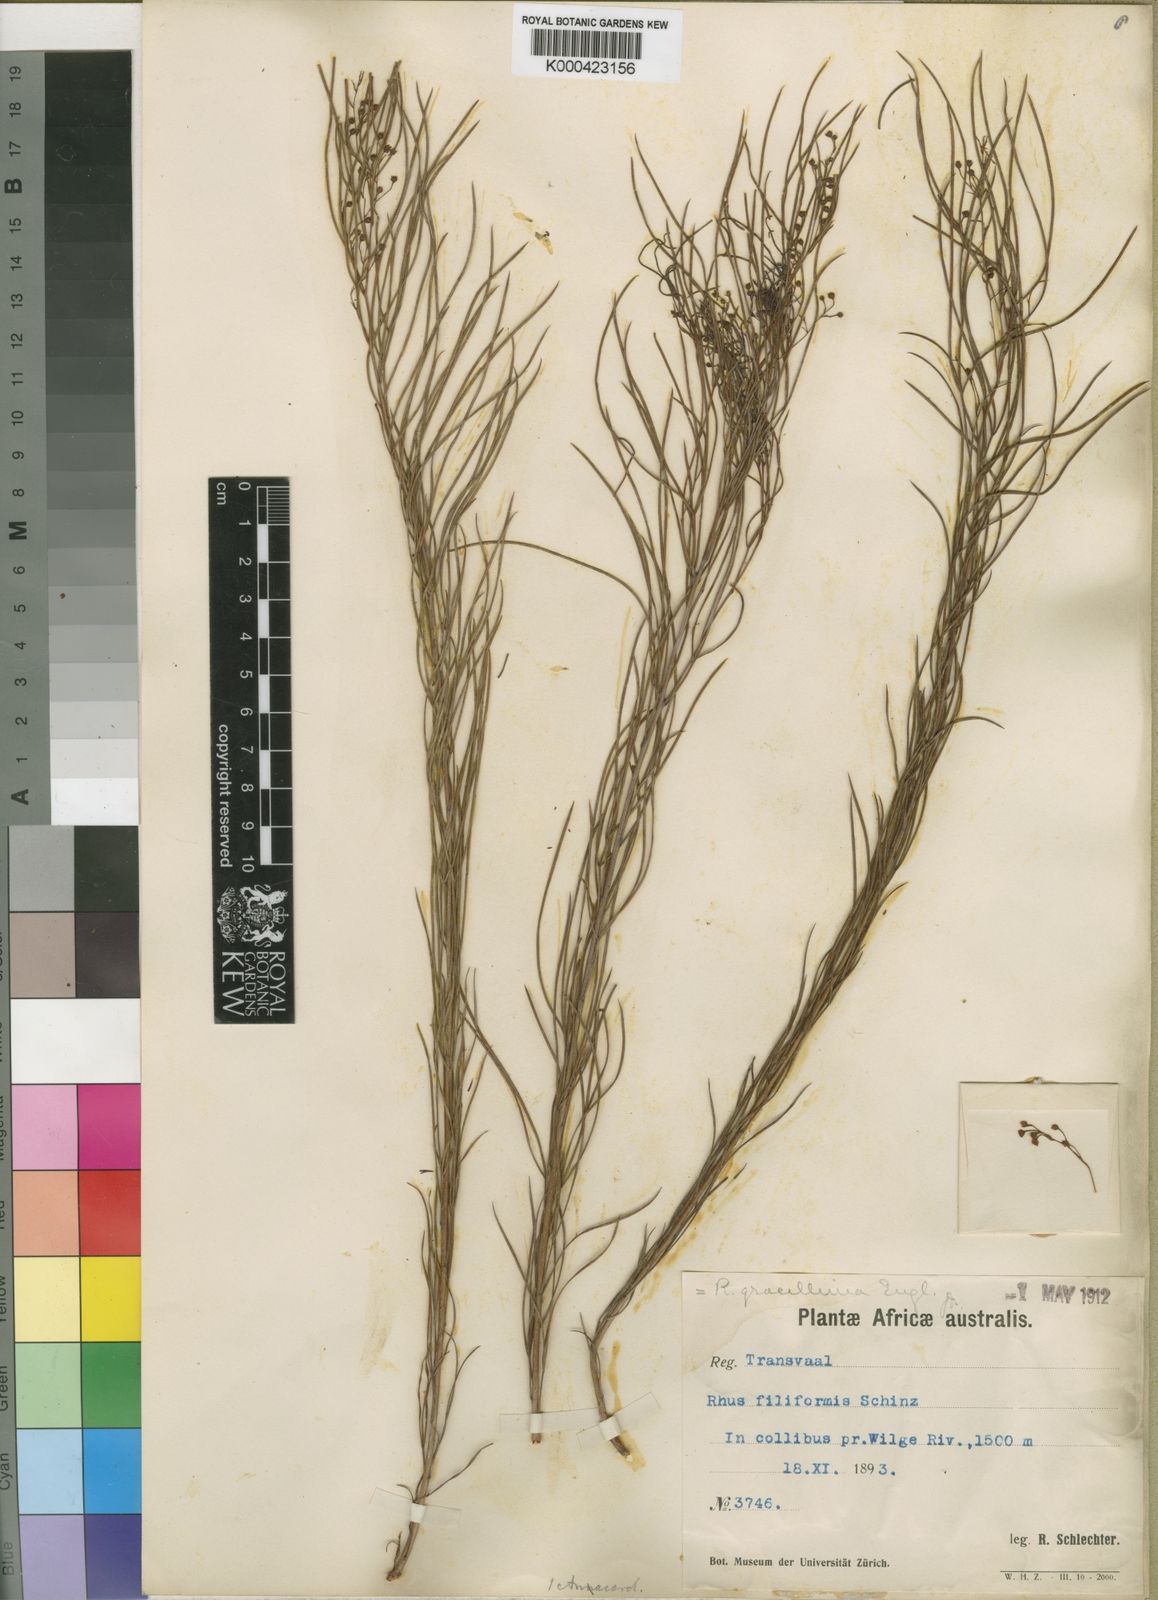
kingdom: Plantae
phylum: Tracheophyta
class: Magnoliopsida
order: Sapindales
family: Anacardiaceae
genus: Searsia
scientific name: Searsia gracillima
